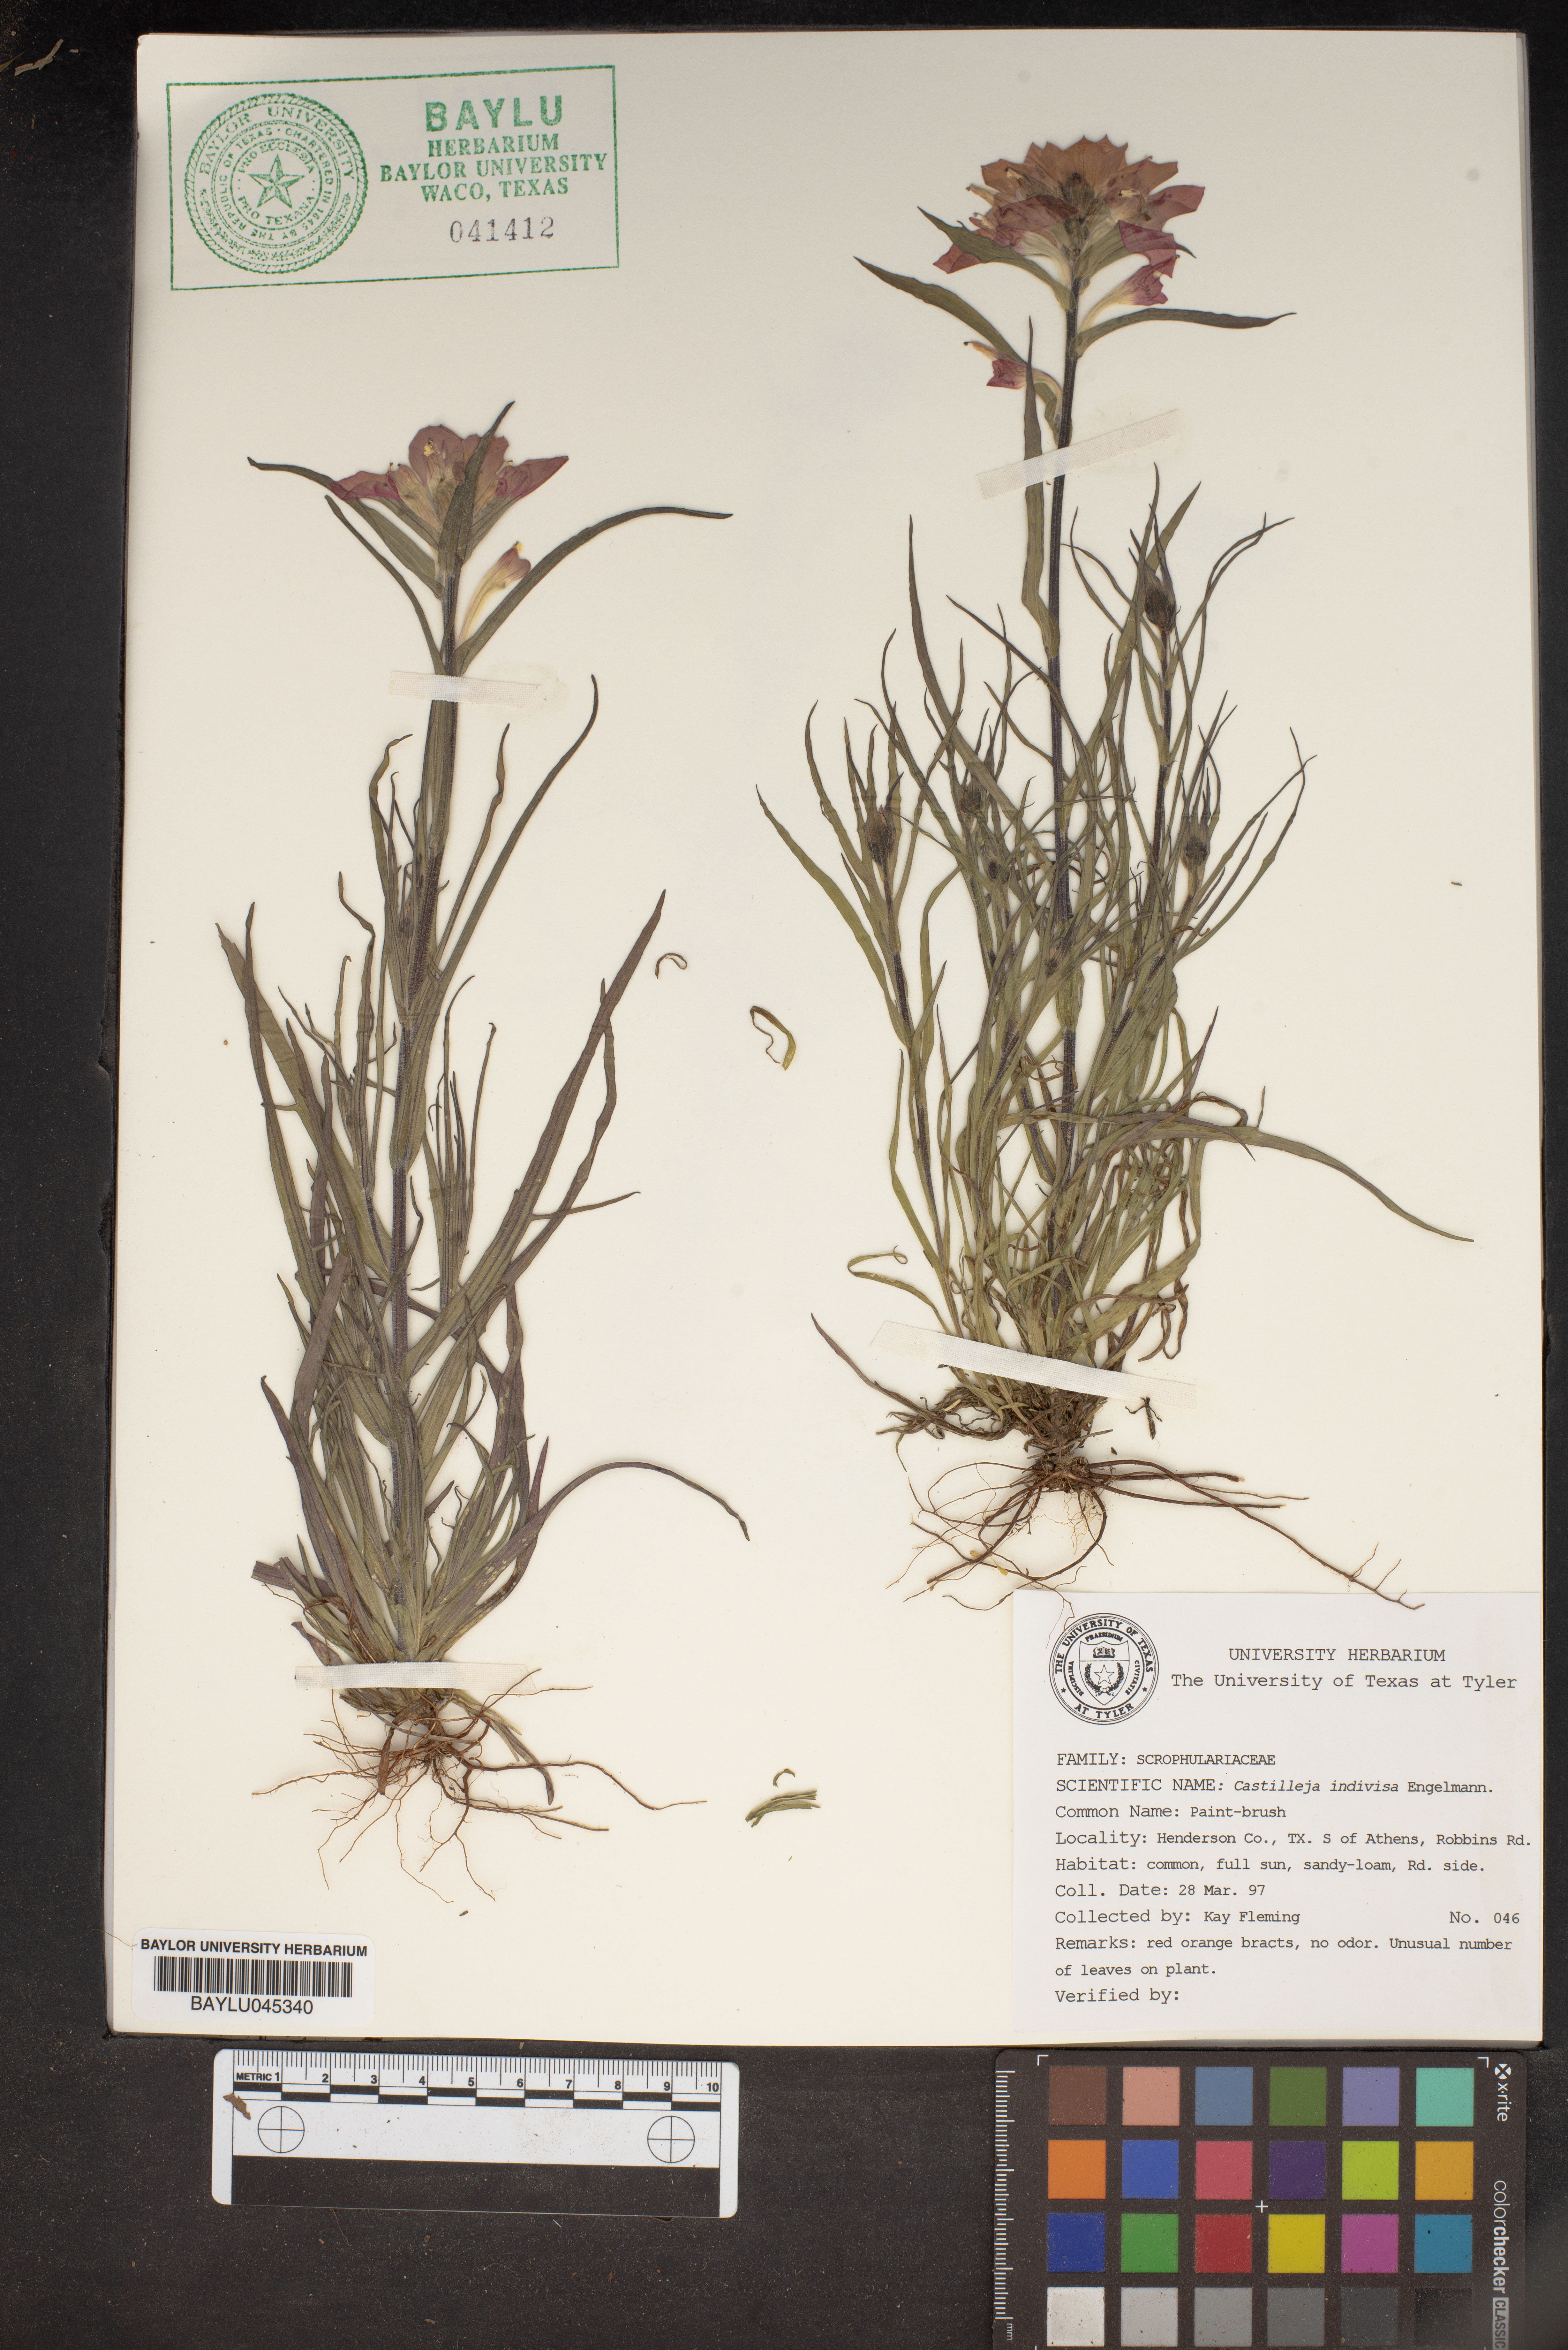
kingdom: Plantae
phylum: Tracheophyta
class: Magnoliopsida
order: Lamiales
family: Orobanchaceae
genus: Castilleja
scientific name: Castilleja indivisa
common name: Texas paintbrush
